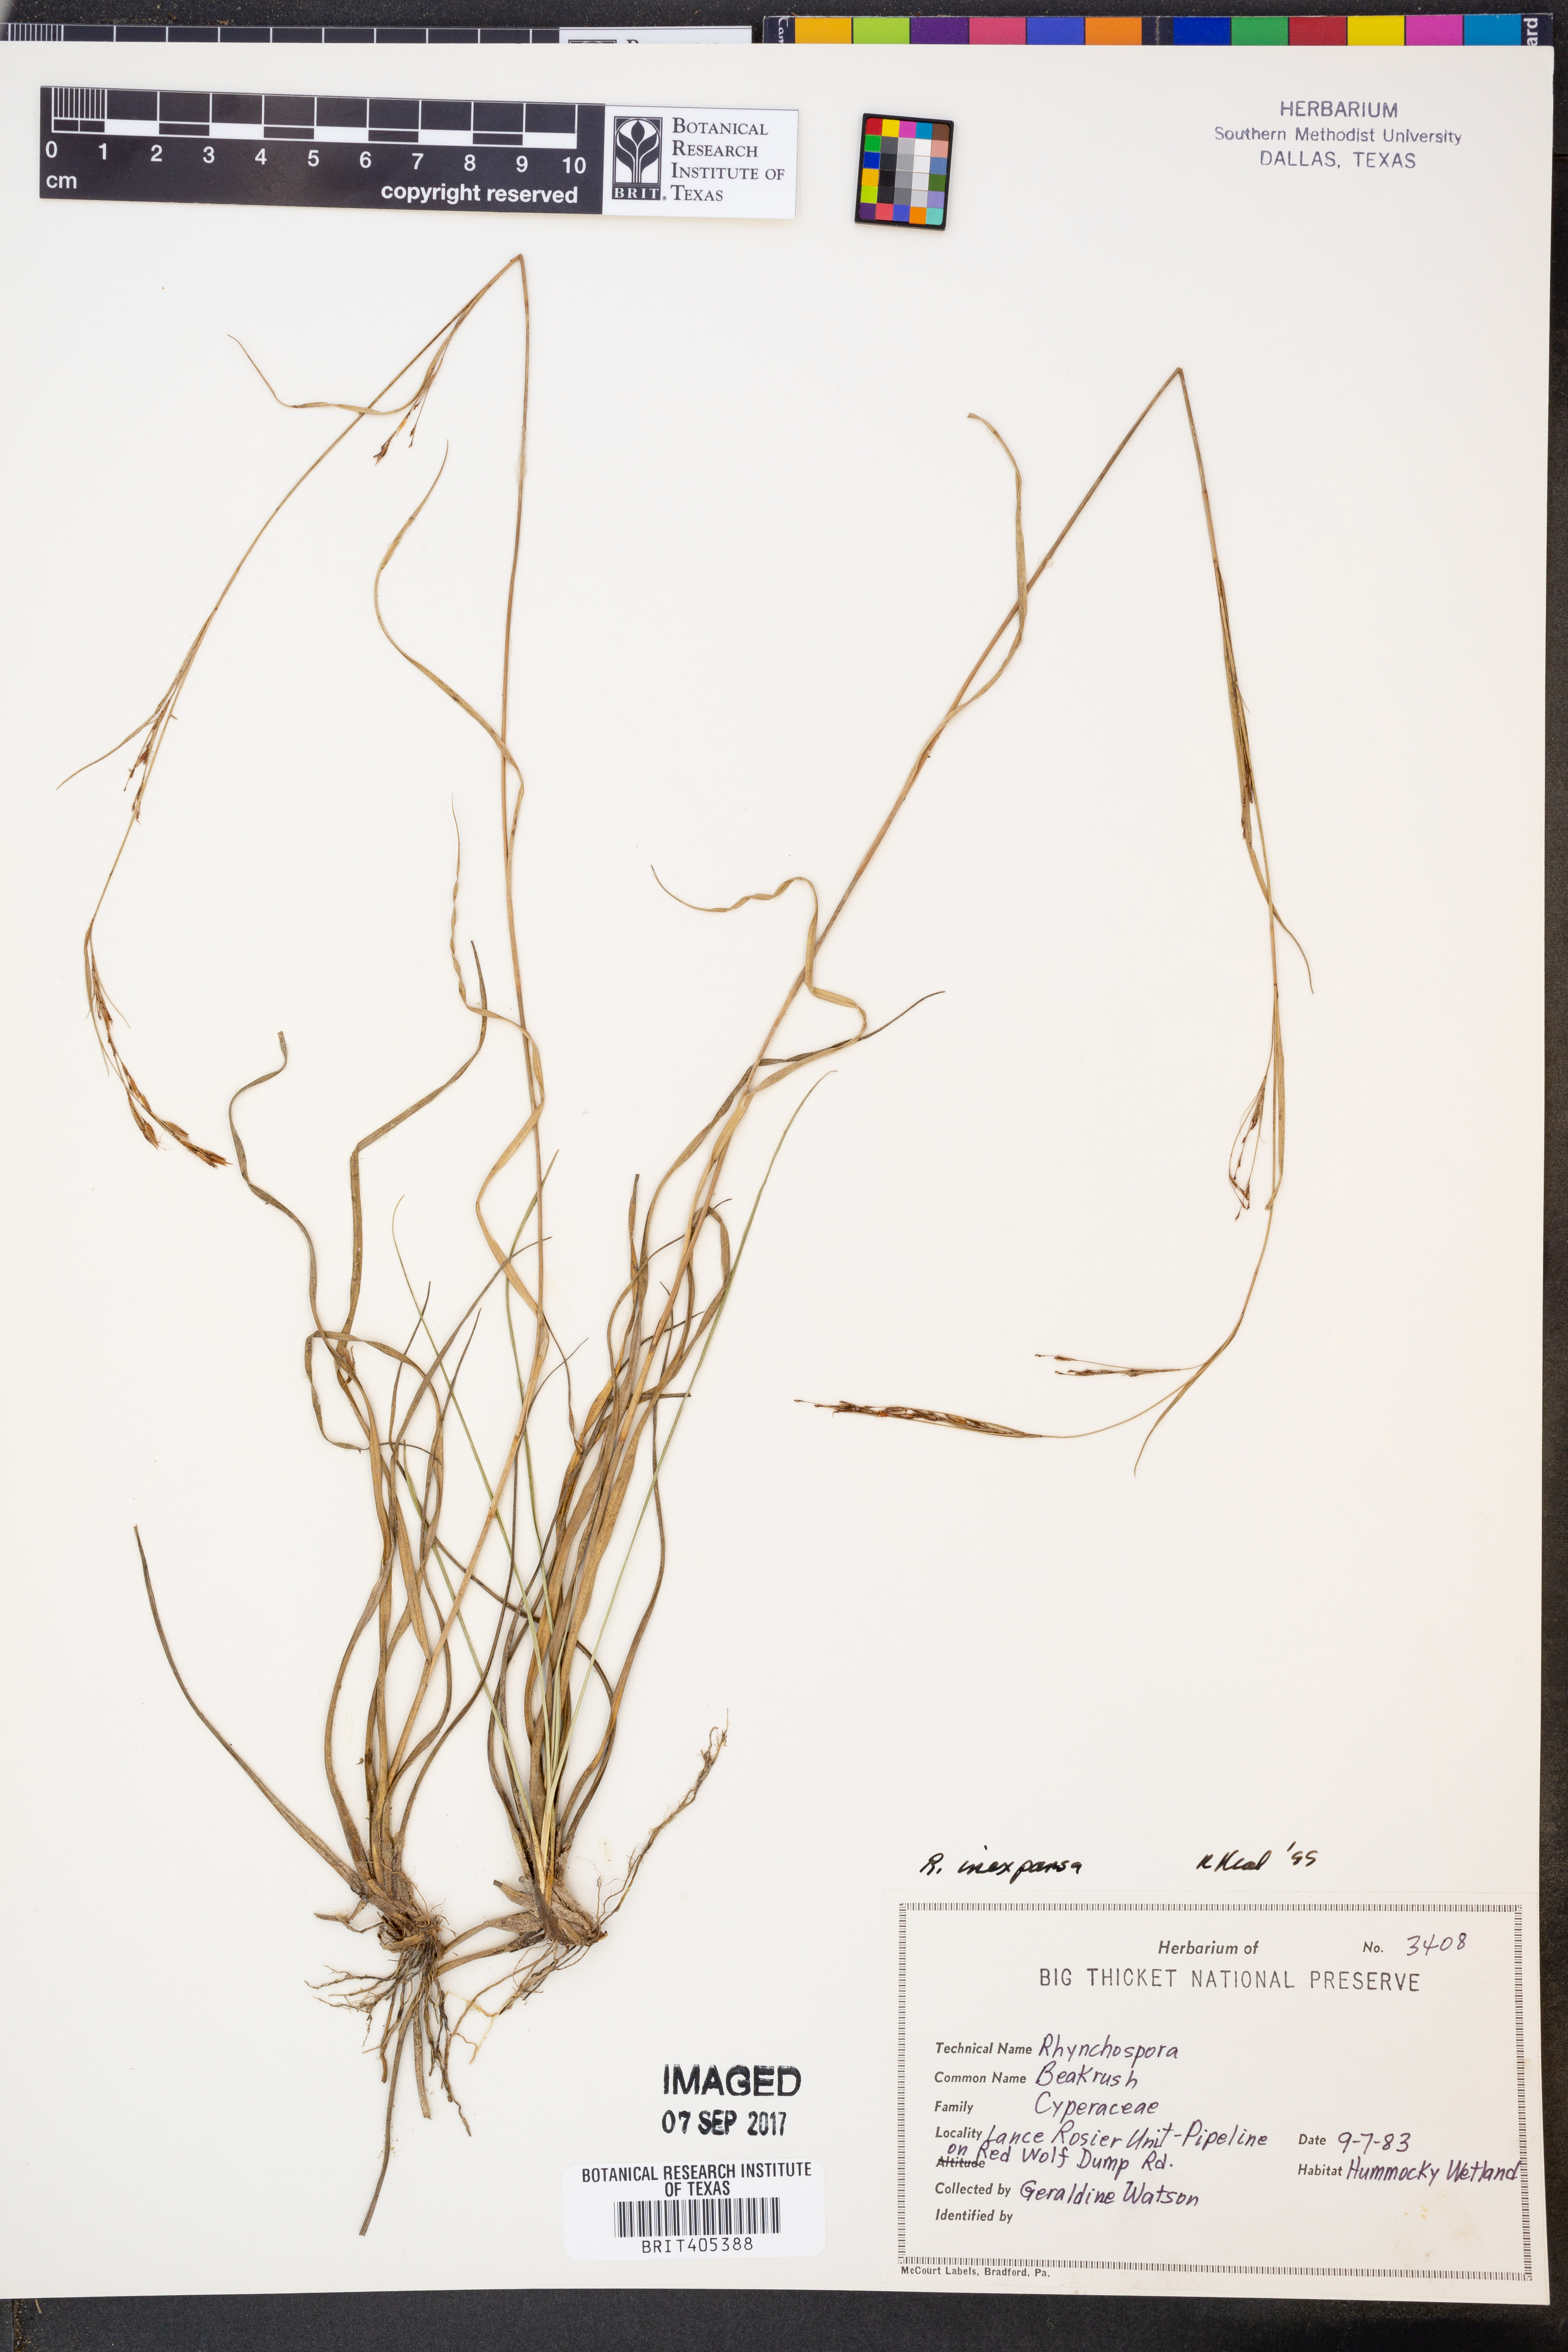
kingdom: Plantae
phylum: Tracheophyta
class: Liliopsida
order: Poales
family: Cyperaceae
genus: Rhynchospora
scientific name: Rhynchospora inexpansa
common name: Nodding beaksedge
